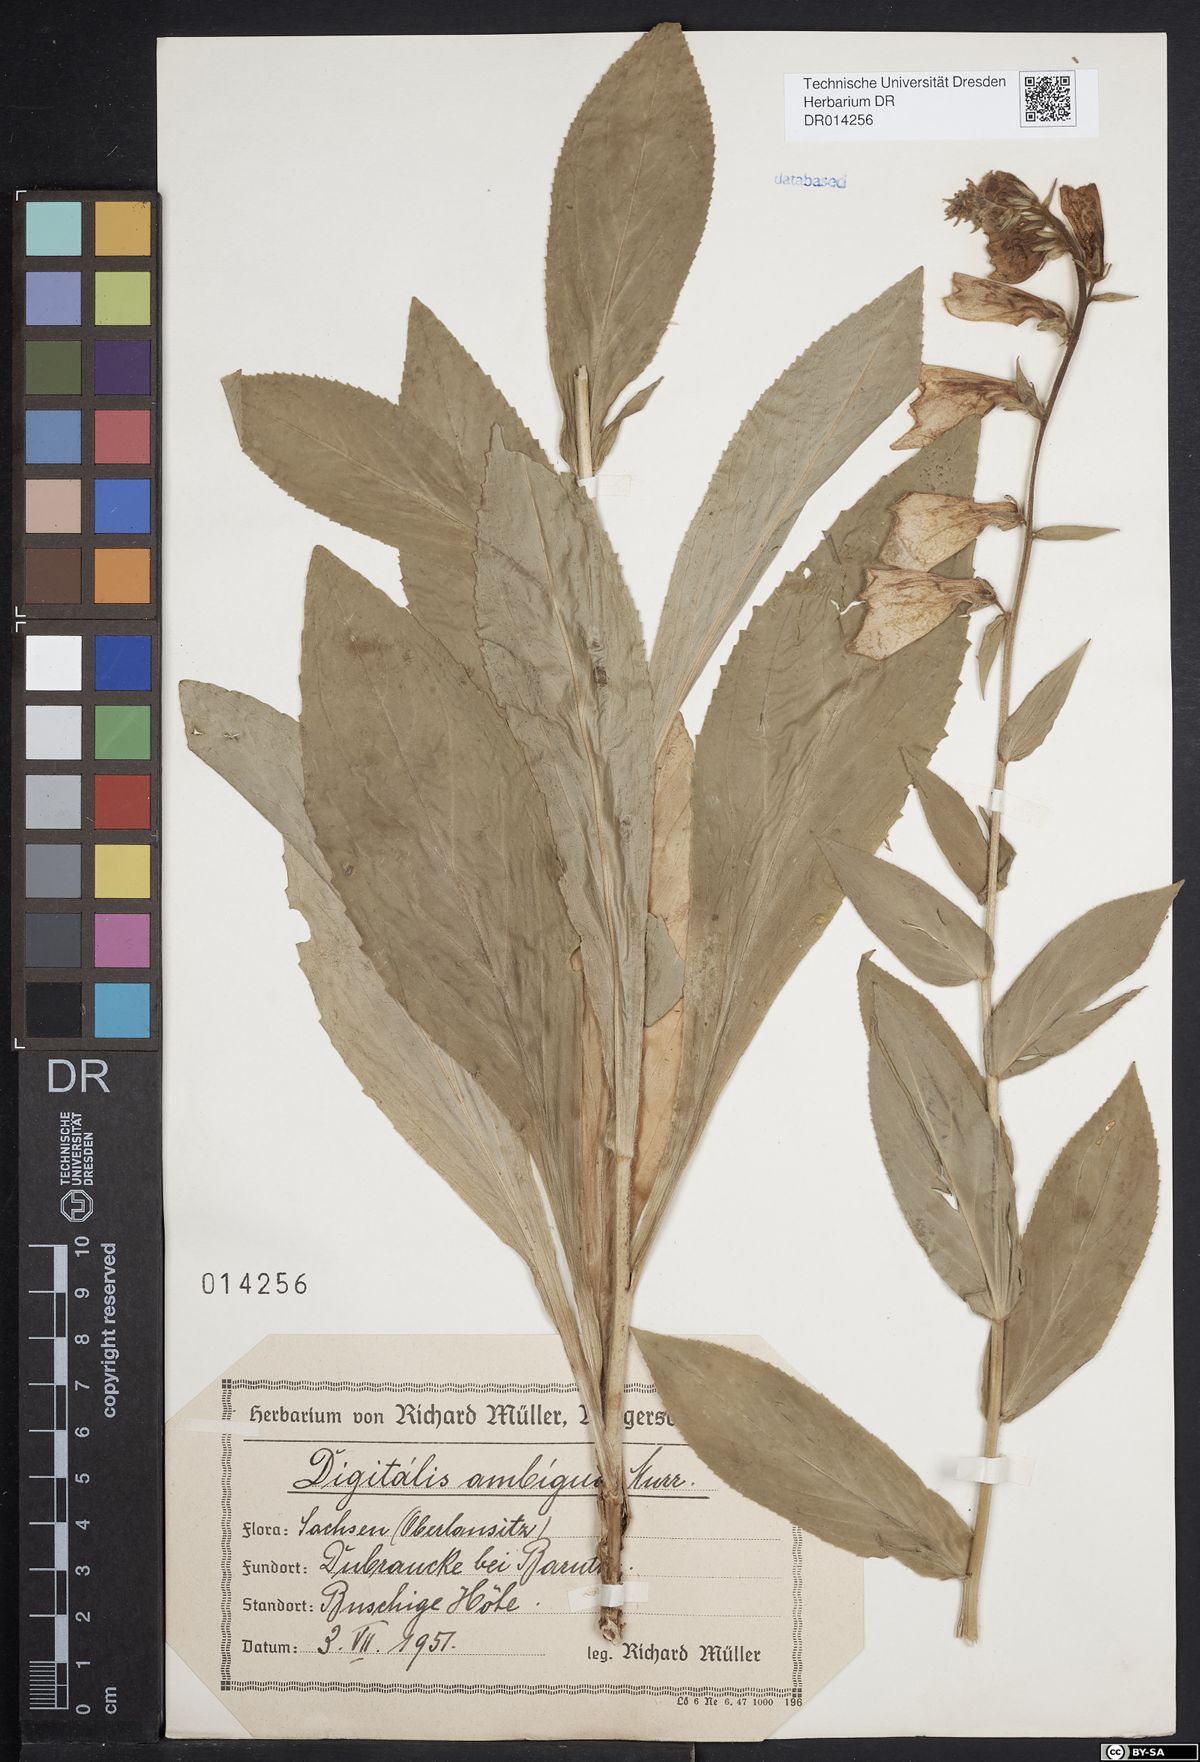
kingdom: Plantae
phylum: Tracheophyta
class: Magnoliopsida
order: Lamiales
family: Plantaginaceae
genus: Digitalis
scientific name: Digitalis grandiflora
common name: Yellow foxglove
